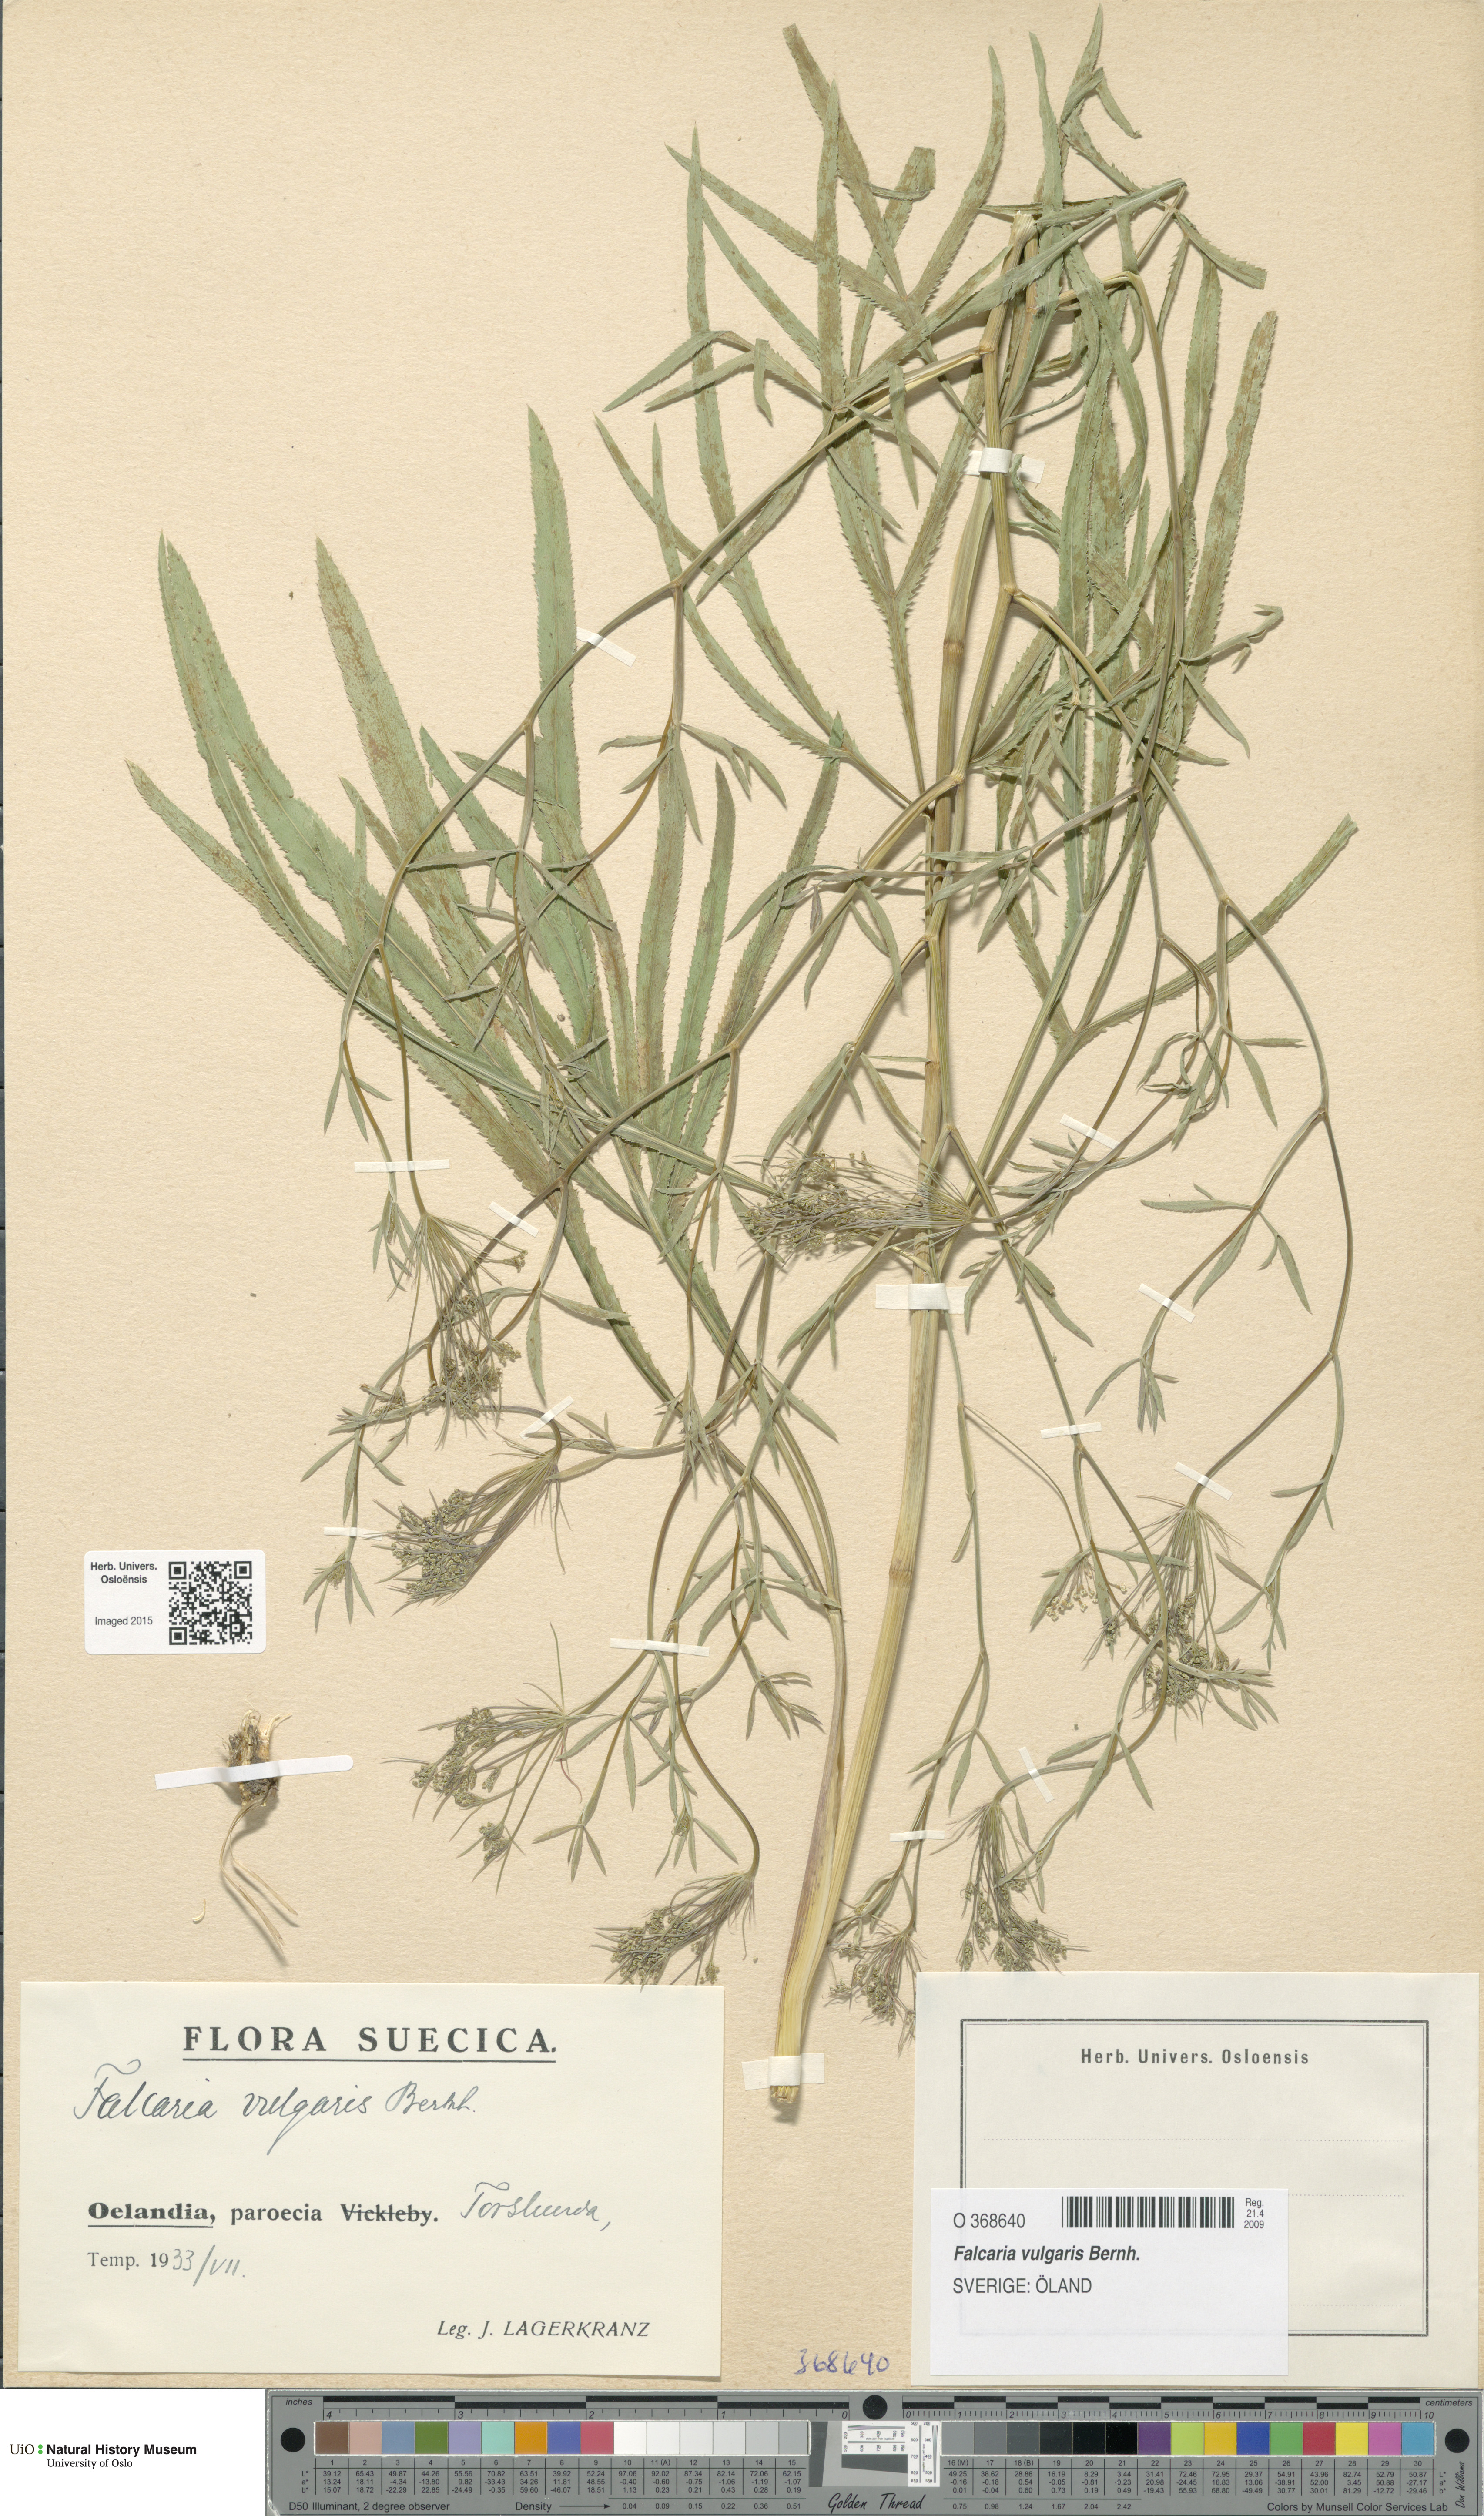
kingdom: Plantae
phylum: Tracheophyta
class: Magnoliopsida
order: Apiales
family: Apiaceae
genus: Falcaria
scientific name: Falcaria vulgaris
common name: Longleaf
